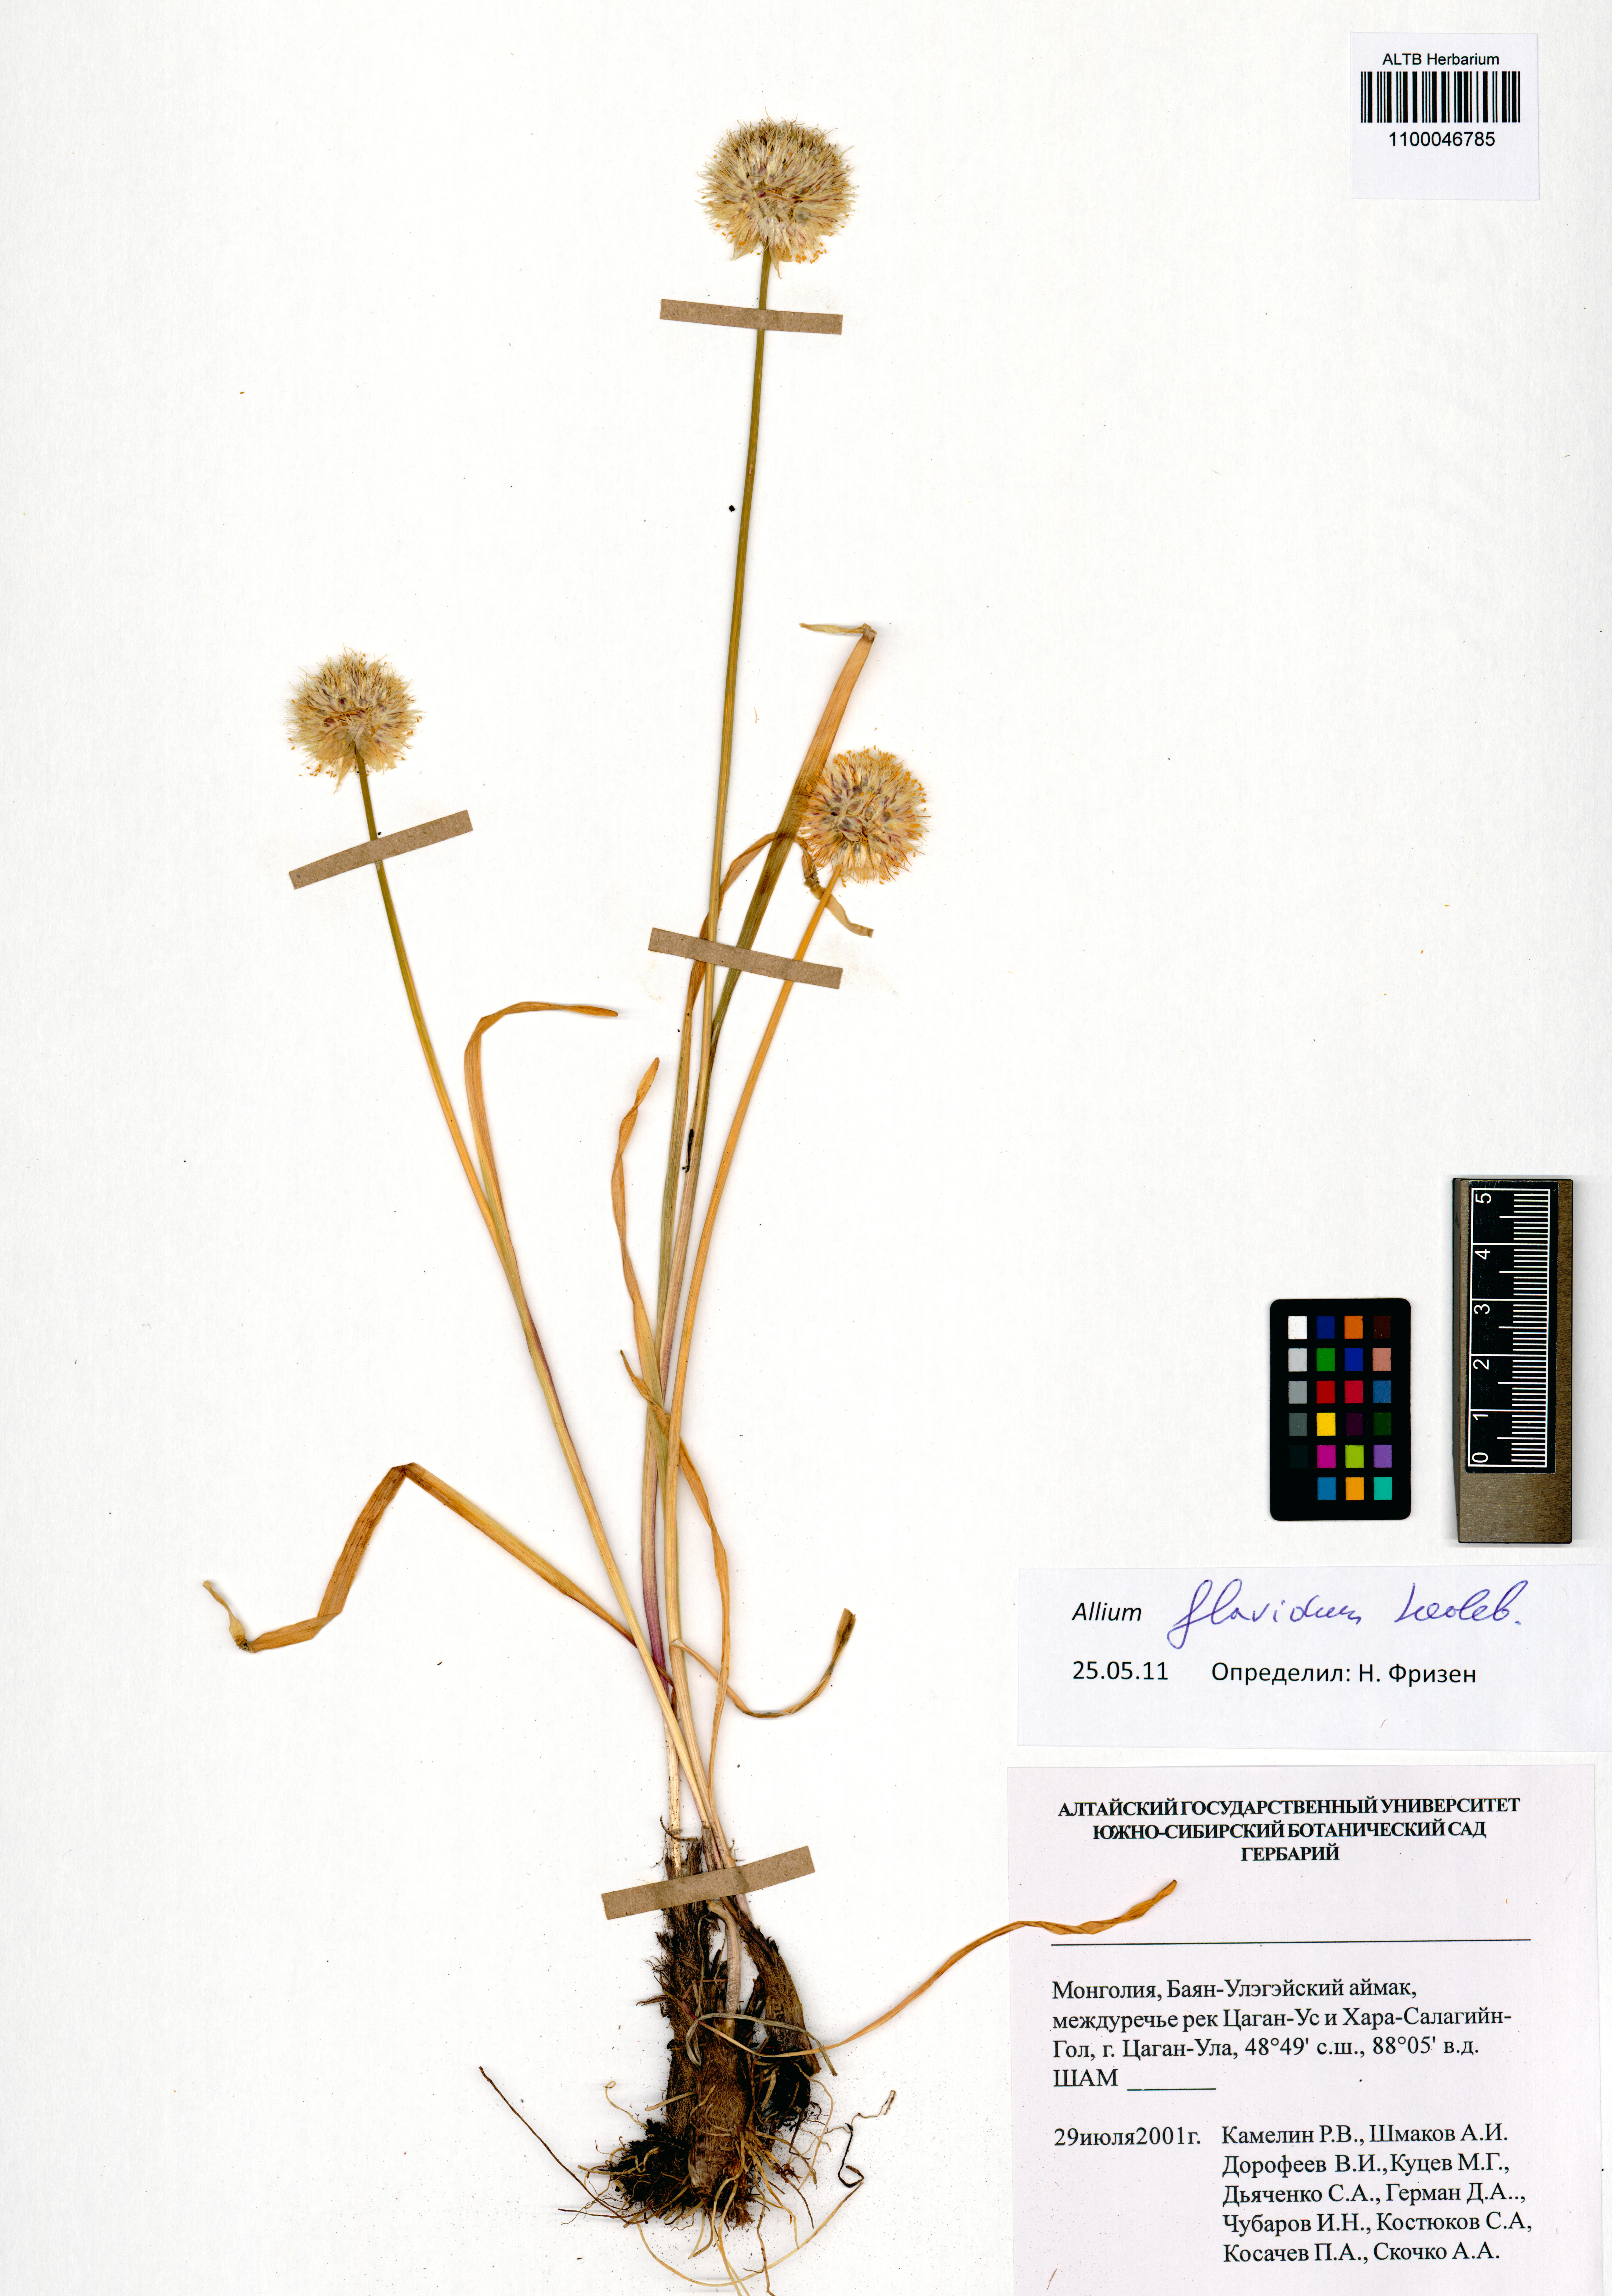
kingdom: Plantae
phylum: Tracheophyta
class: Liliopsida
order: Asparagales
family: Amaryllidaceae
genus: Allium
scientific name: Allium flavidum
